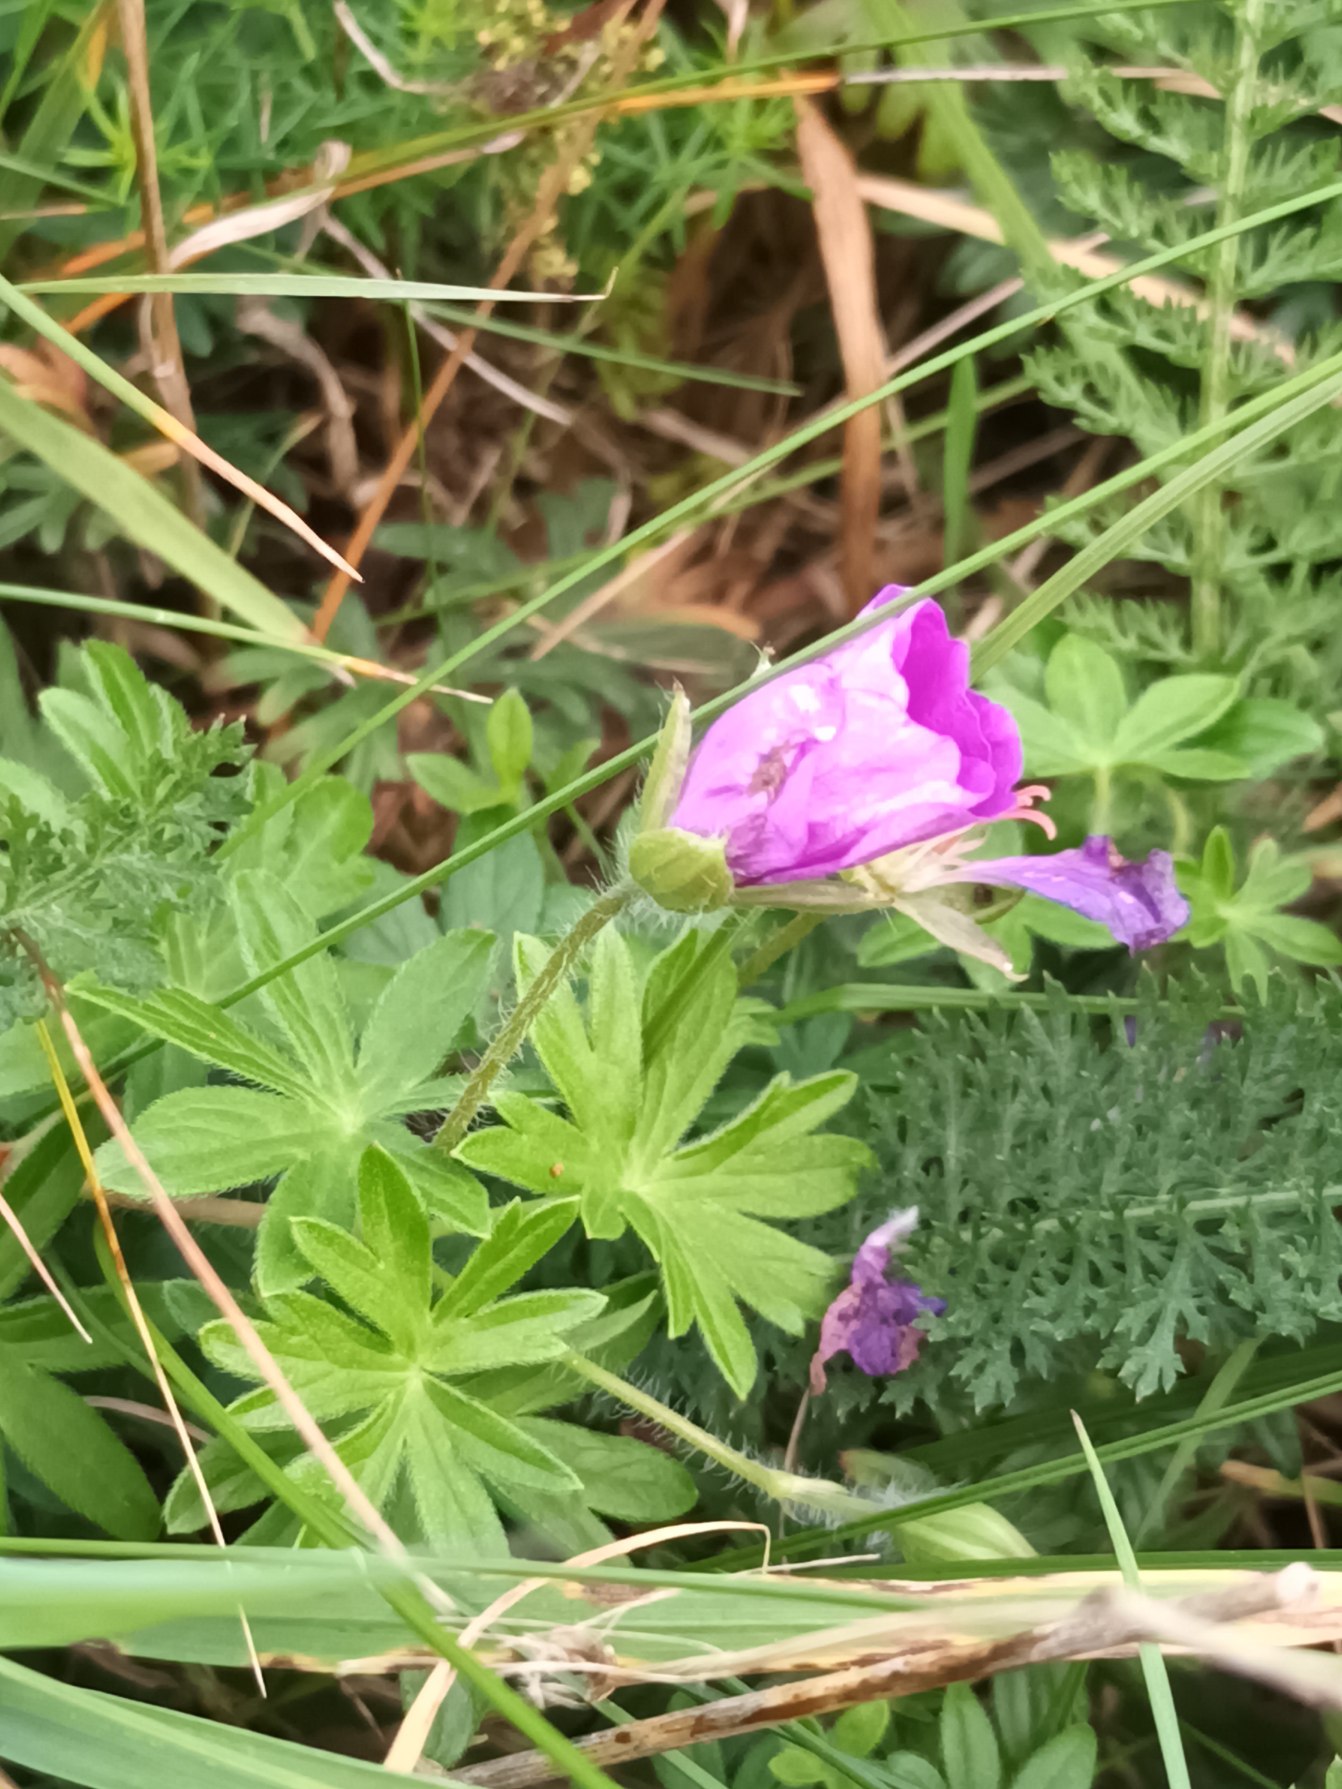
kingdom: Plantae
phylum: Tracheophyta
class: Magnoliopsida
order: Geraniales
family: Geraniaceae
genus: Geranium
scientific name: Geranium sanguineum
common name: Blodrød storkenæb
